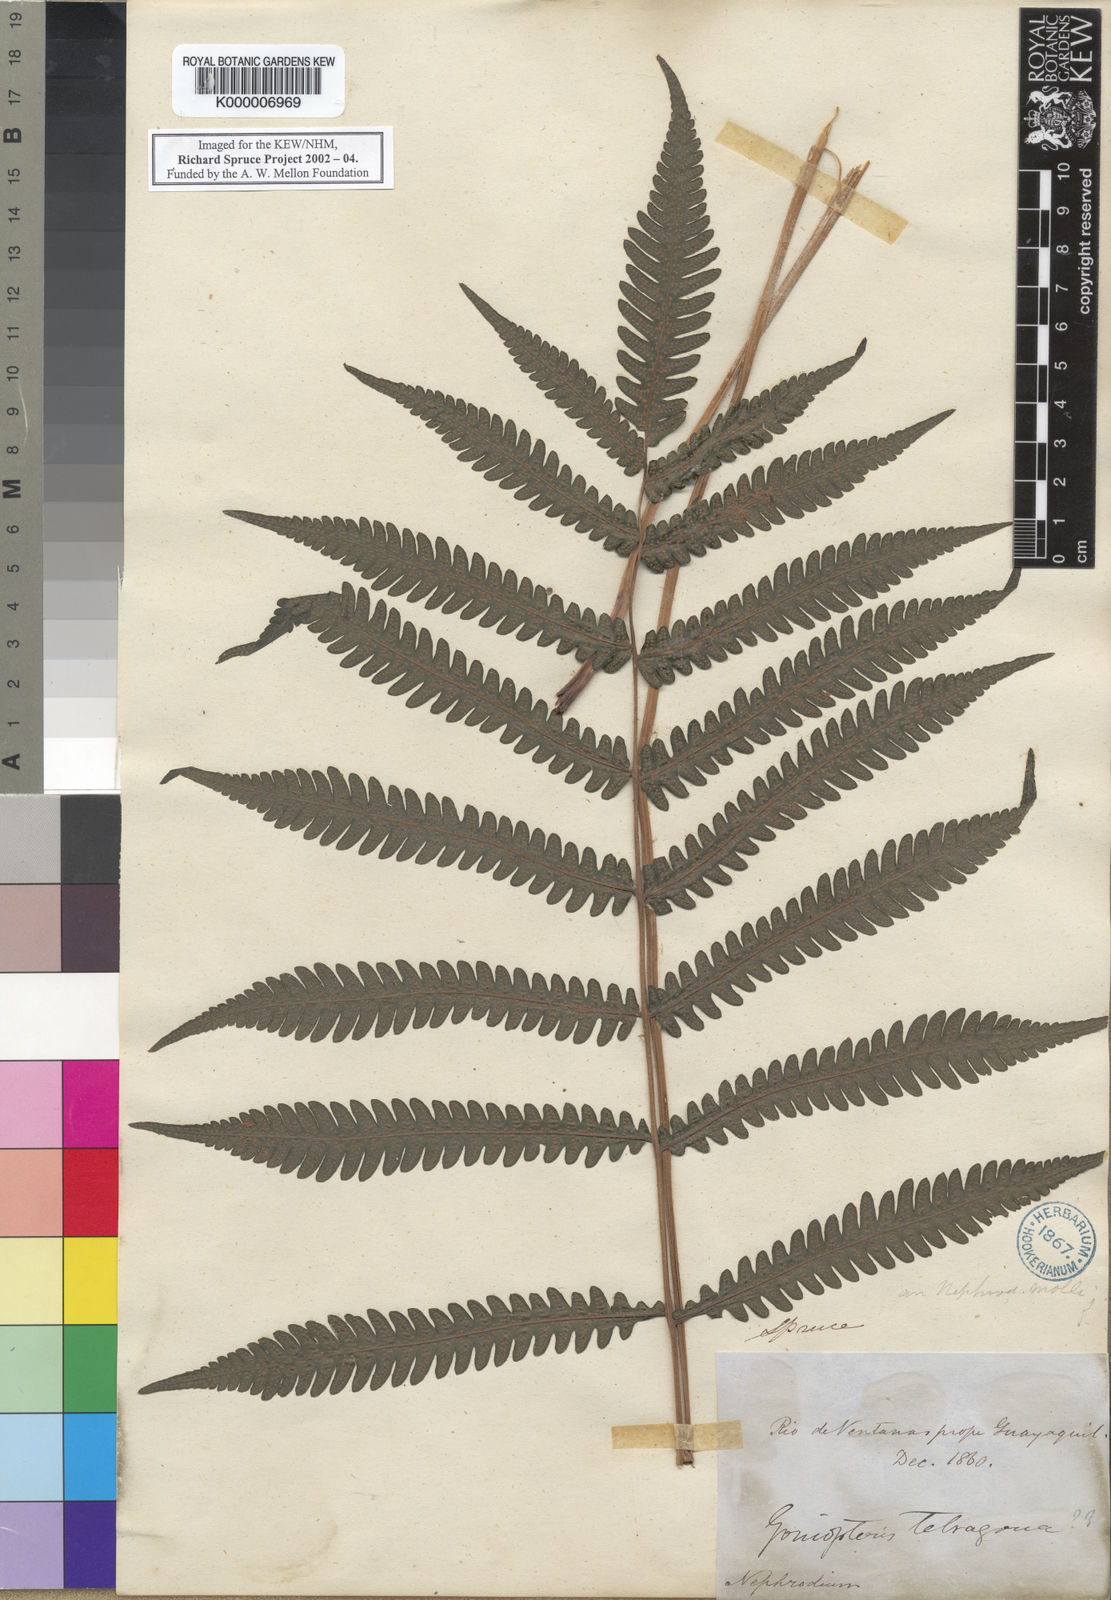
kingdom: Plantae
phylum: Tracheophyta
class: Polypodiopsida
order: Polypodiales
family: Thelypteridaceae
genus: Goniopteris
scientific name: Goniopteris tetragona
